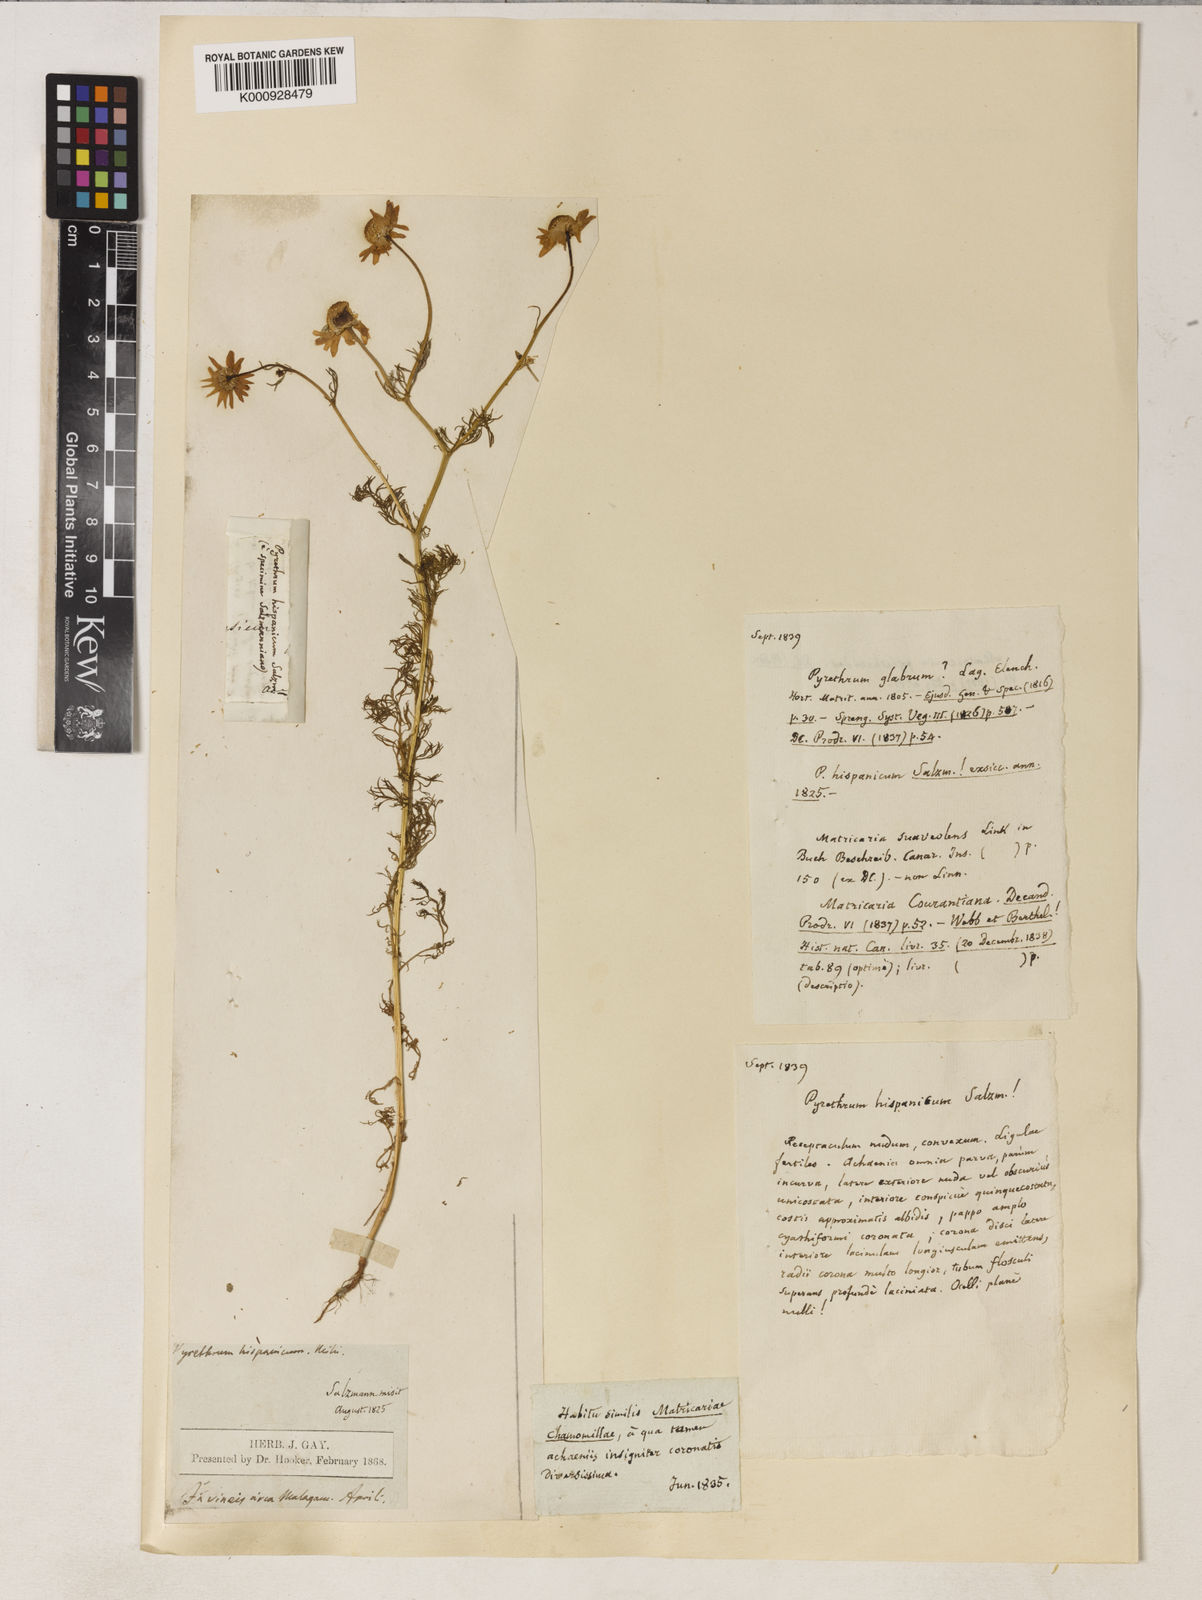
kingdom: Plantae
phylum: Tracheophyta
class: Magnoliopsida
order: Asterales
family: Asteraceae
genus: Matricaria
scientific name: Matricaria chamomilla
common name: Scented mayweed
